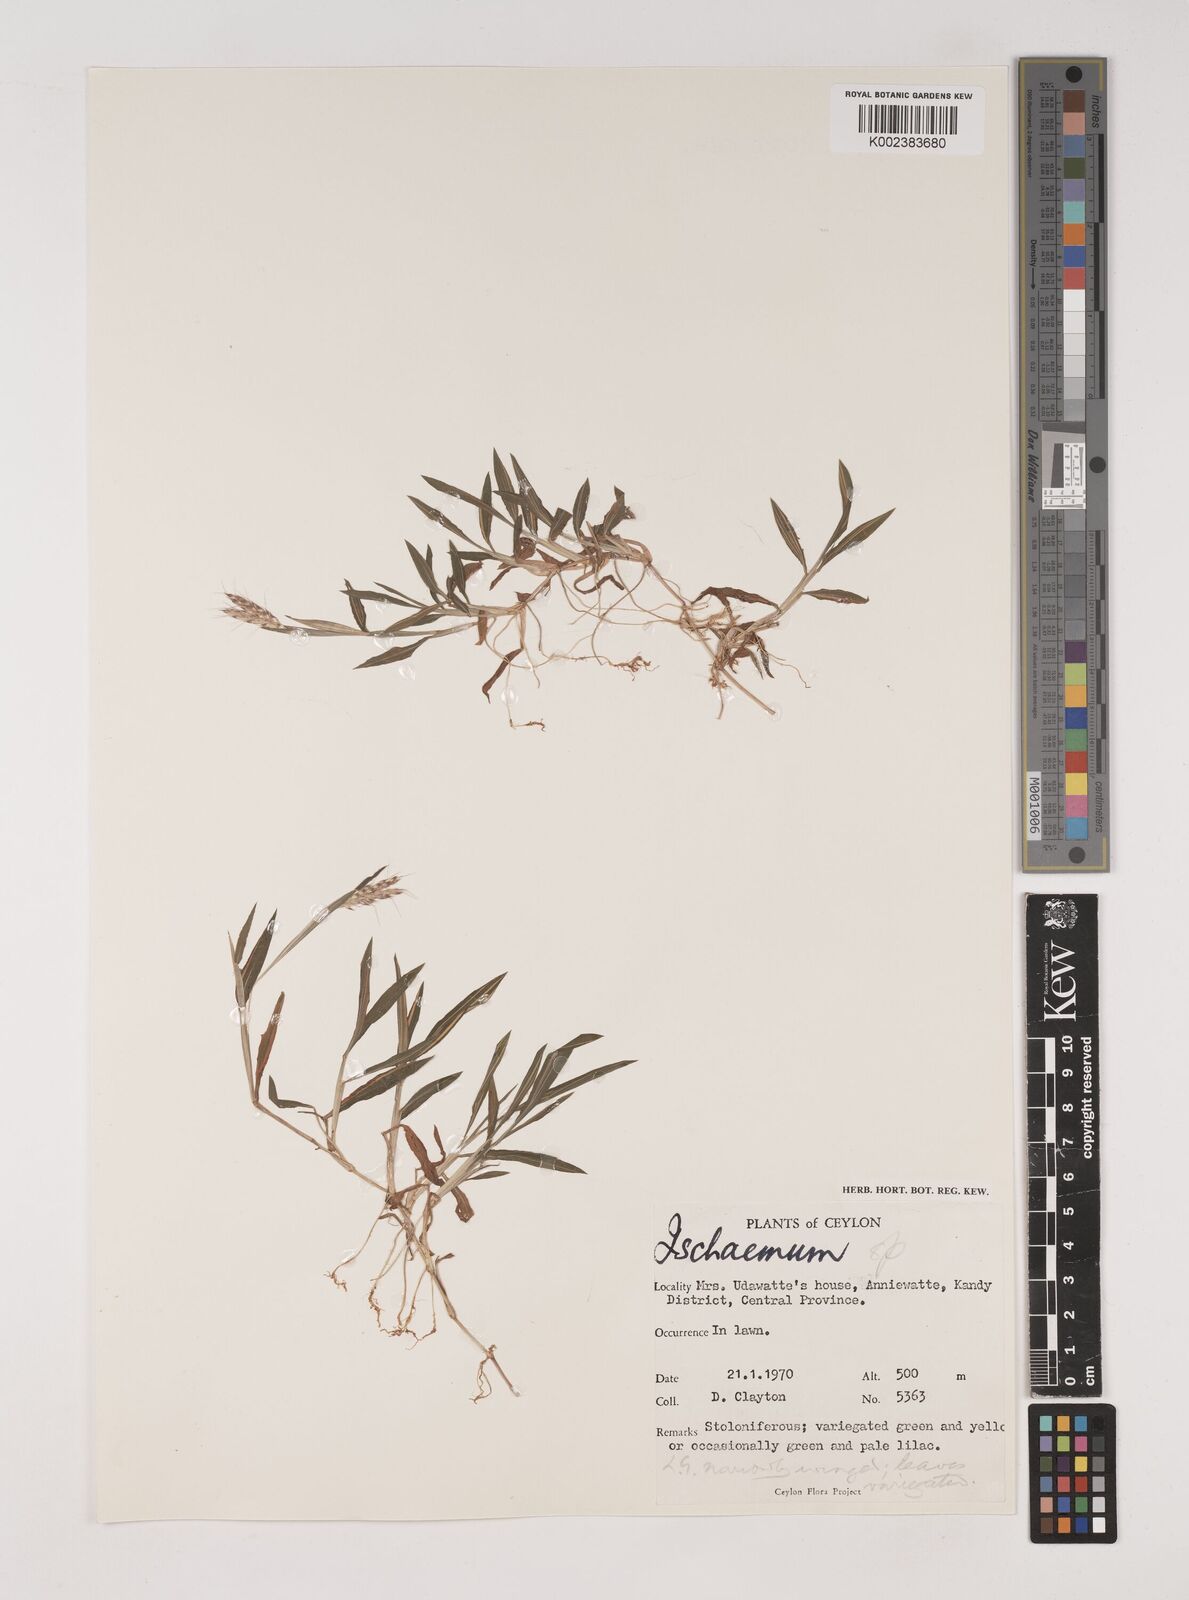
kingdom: Plantae
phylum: Tracheophyta
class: Liliopsida
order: Poales
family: Poaceae
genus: Ischaemum
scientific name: Ischaemum
